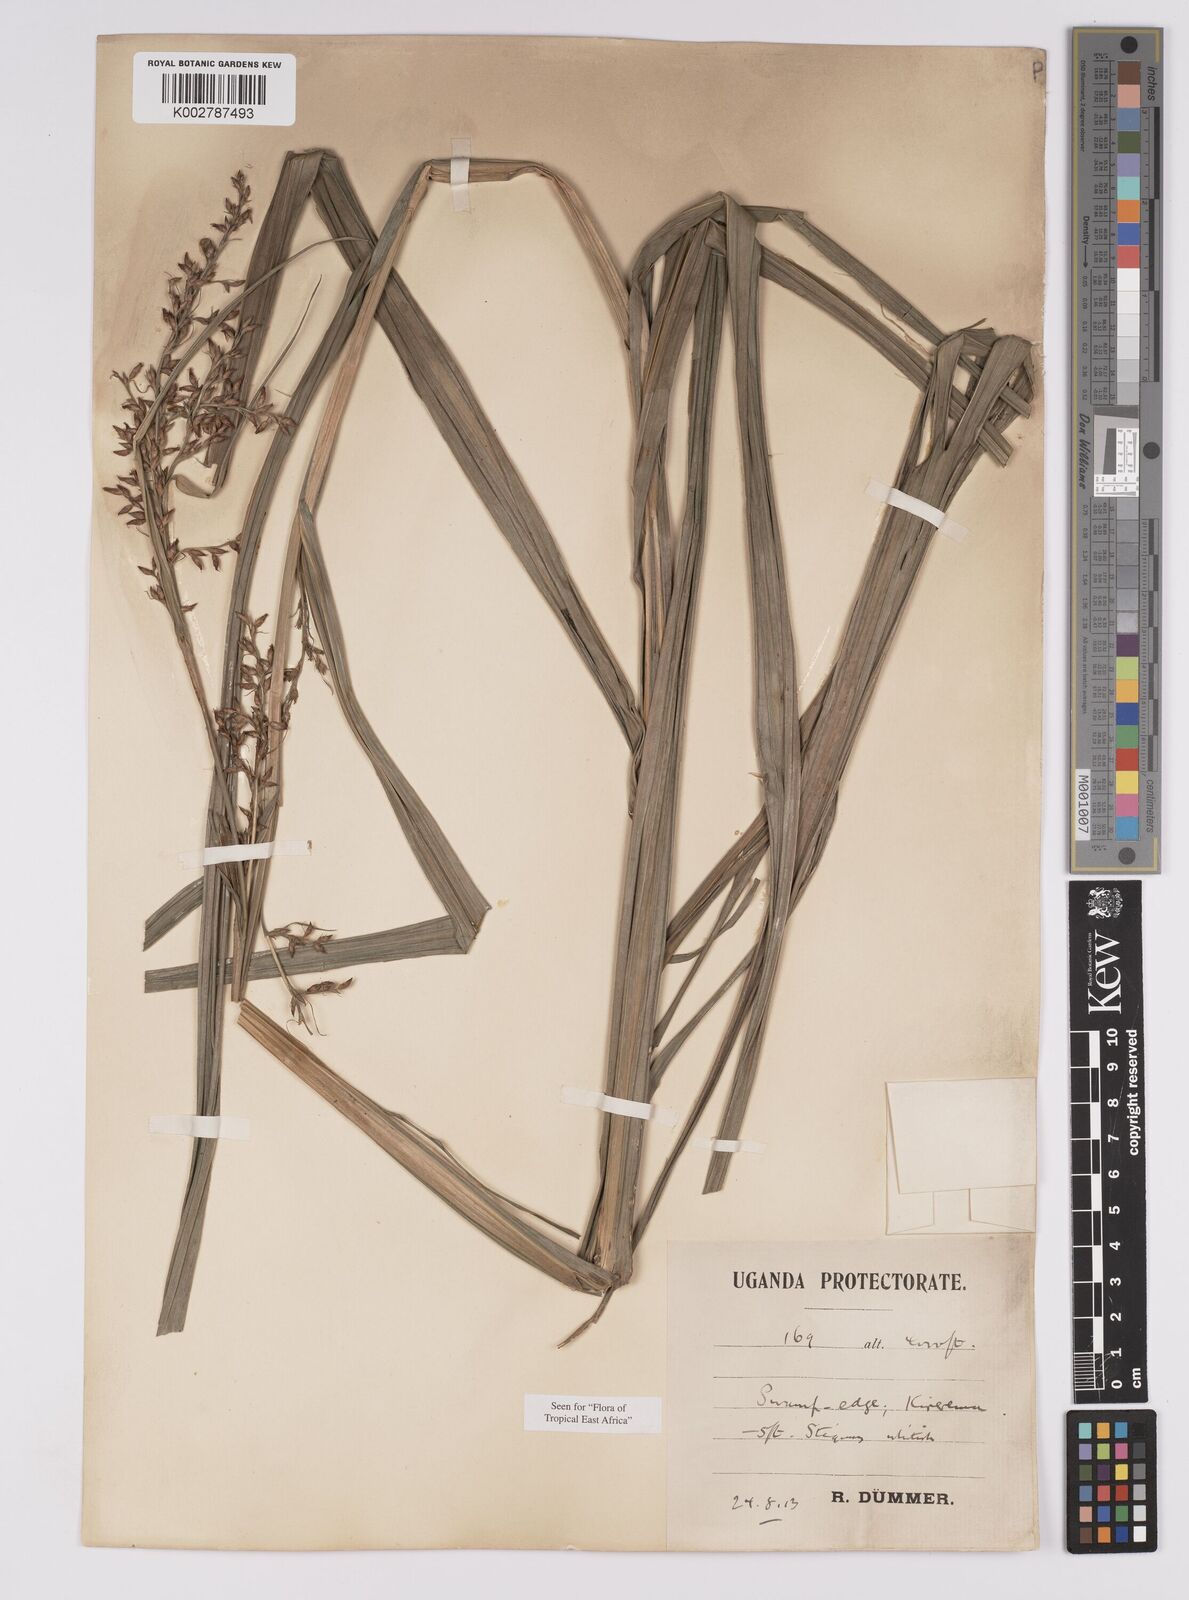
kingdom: Plantae
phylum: Tracheophyta
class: Liliopsida
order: Poales
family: Cyperaceae
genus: Scleria
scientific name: Scleria racemosa
